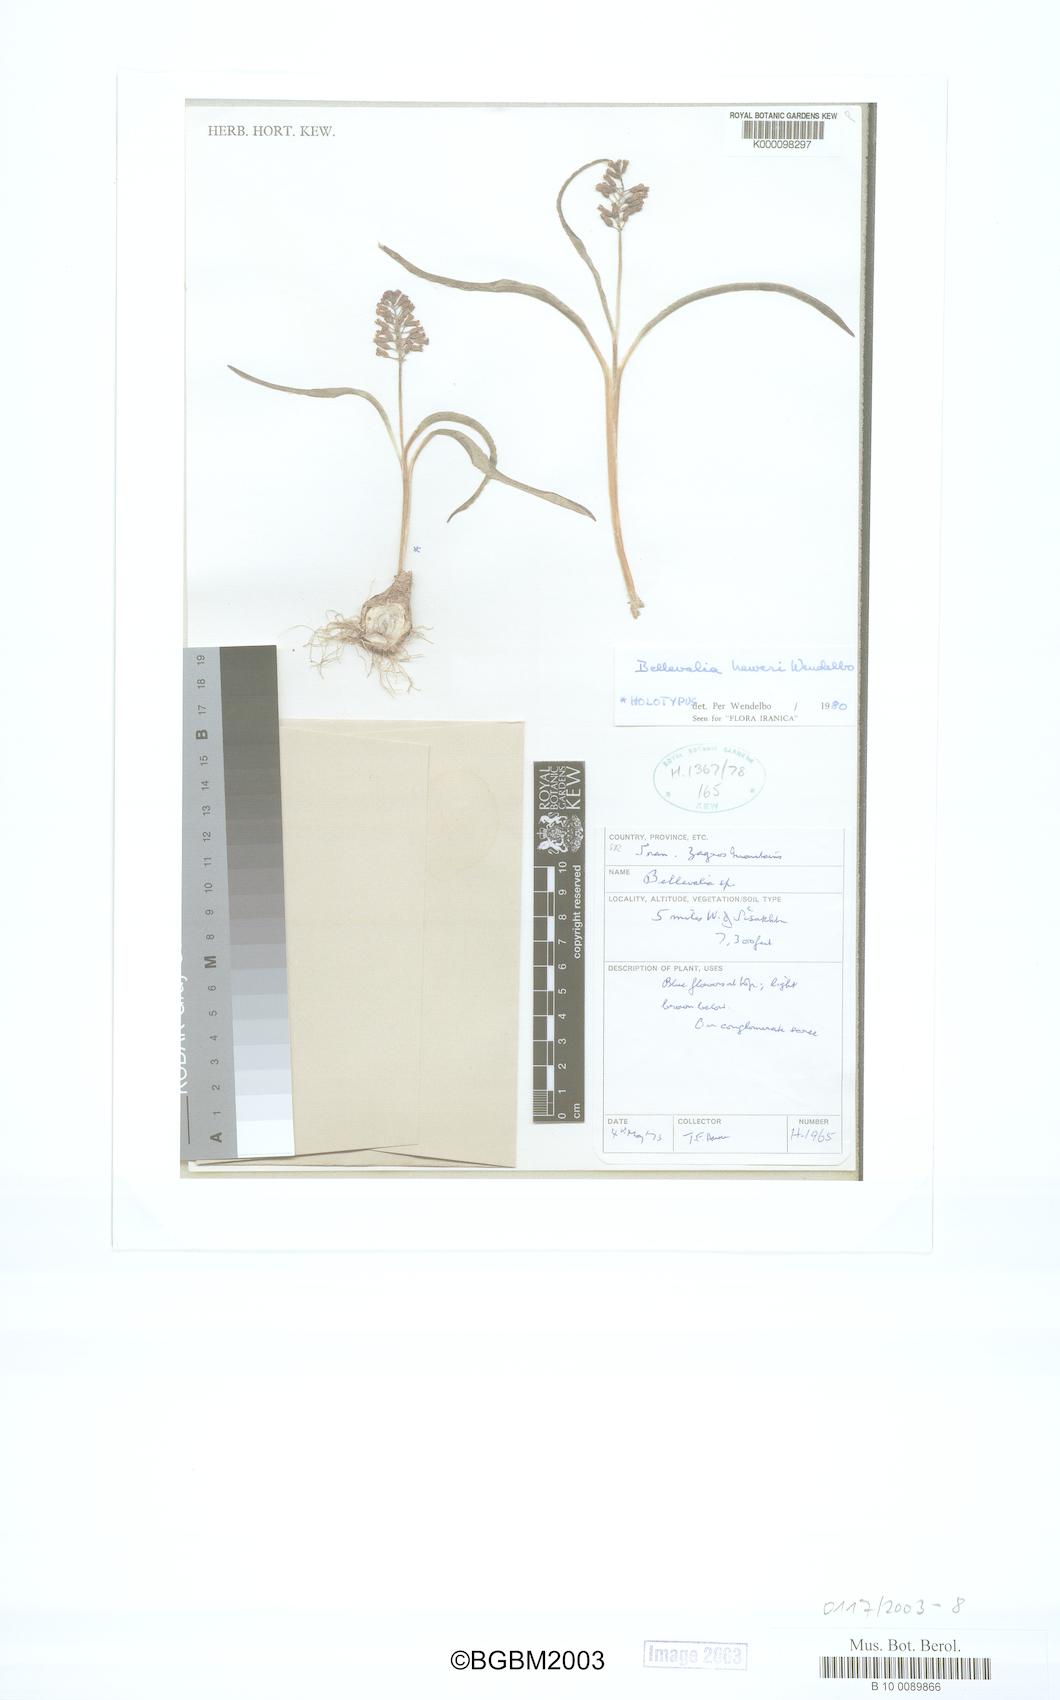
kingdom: Plantae
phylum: Tracheophyta
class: Liliopsida
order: Asparagales
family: Asparagaceae
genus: Bellevalia
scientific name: Bellevalia heweri
